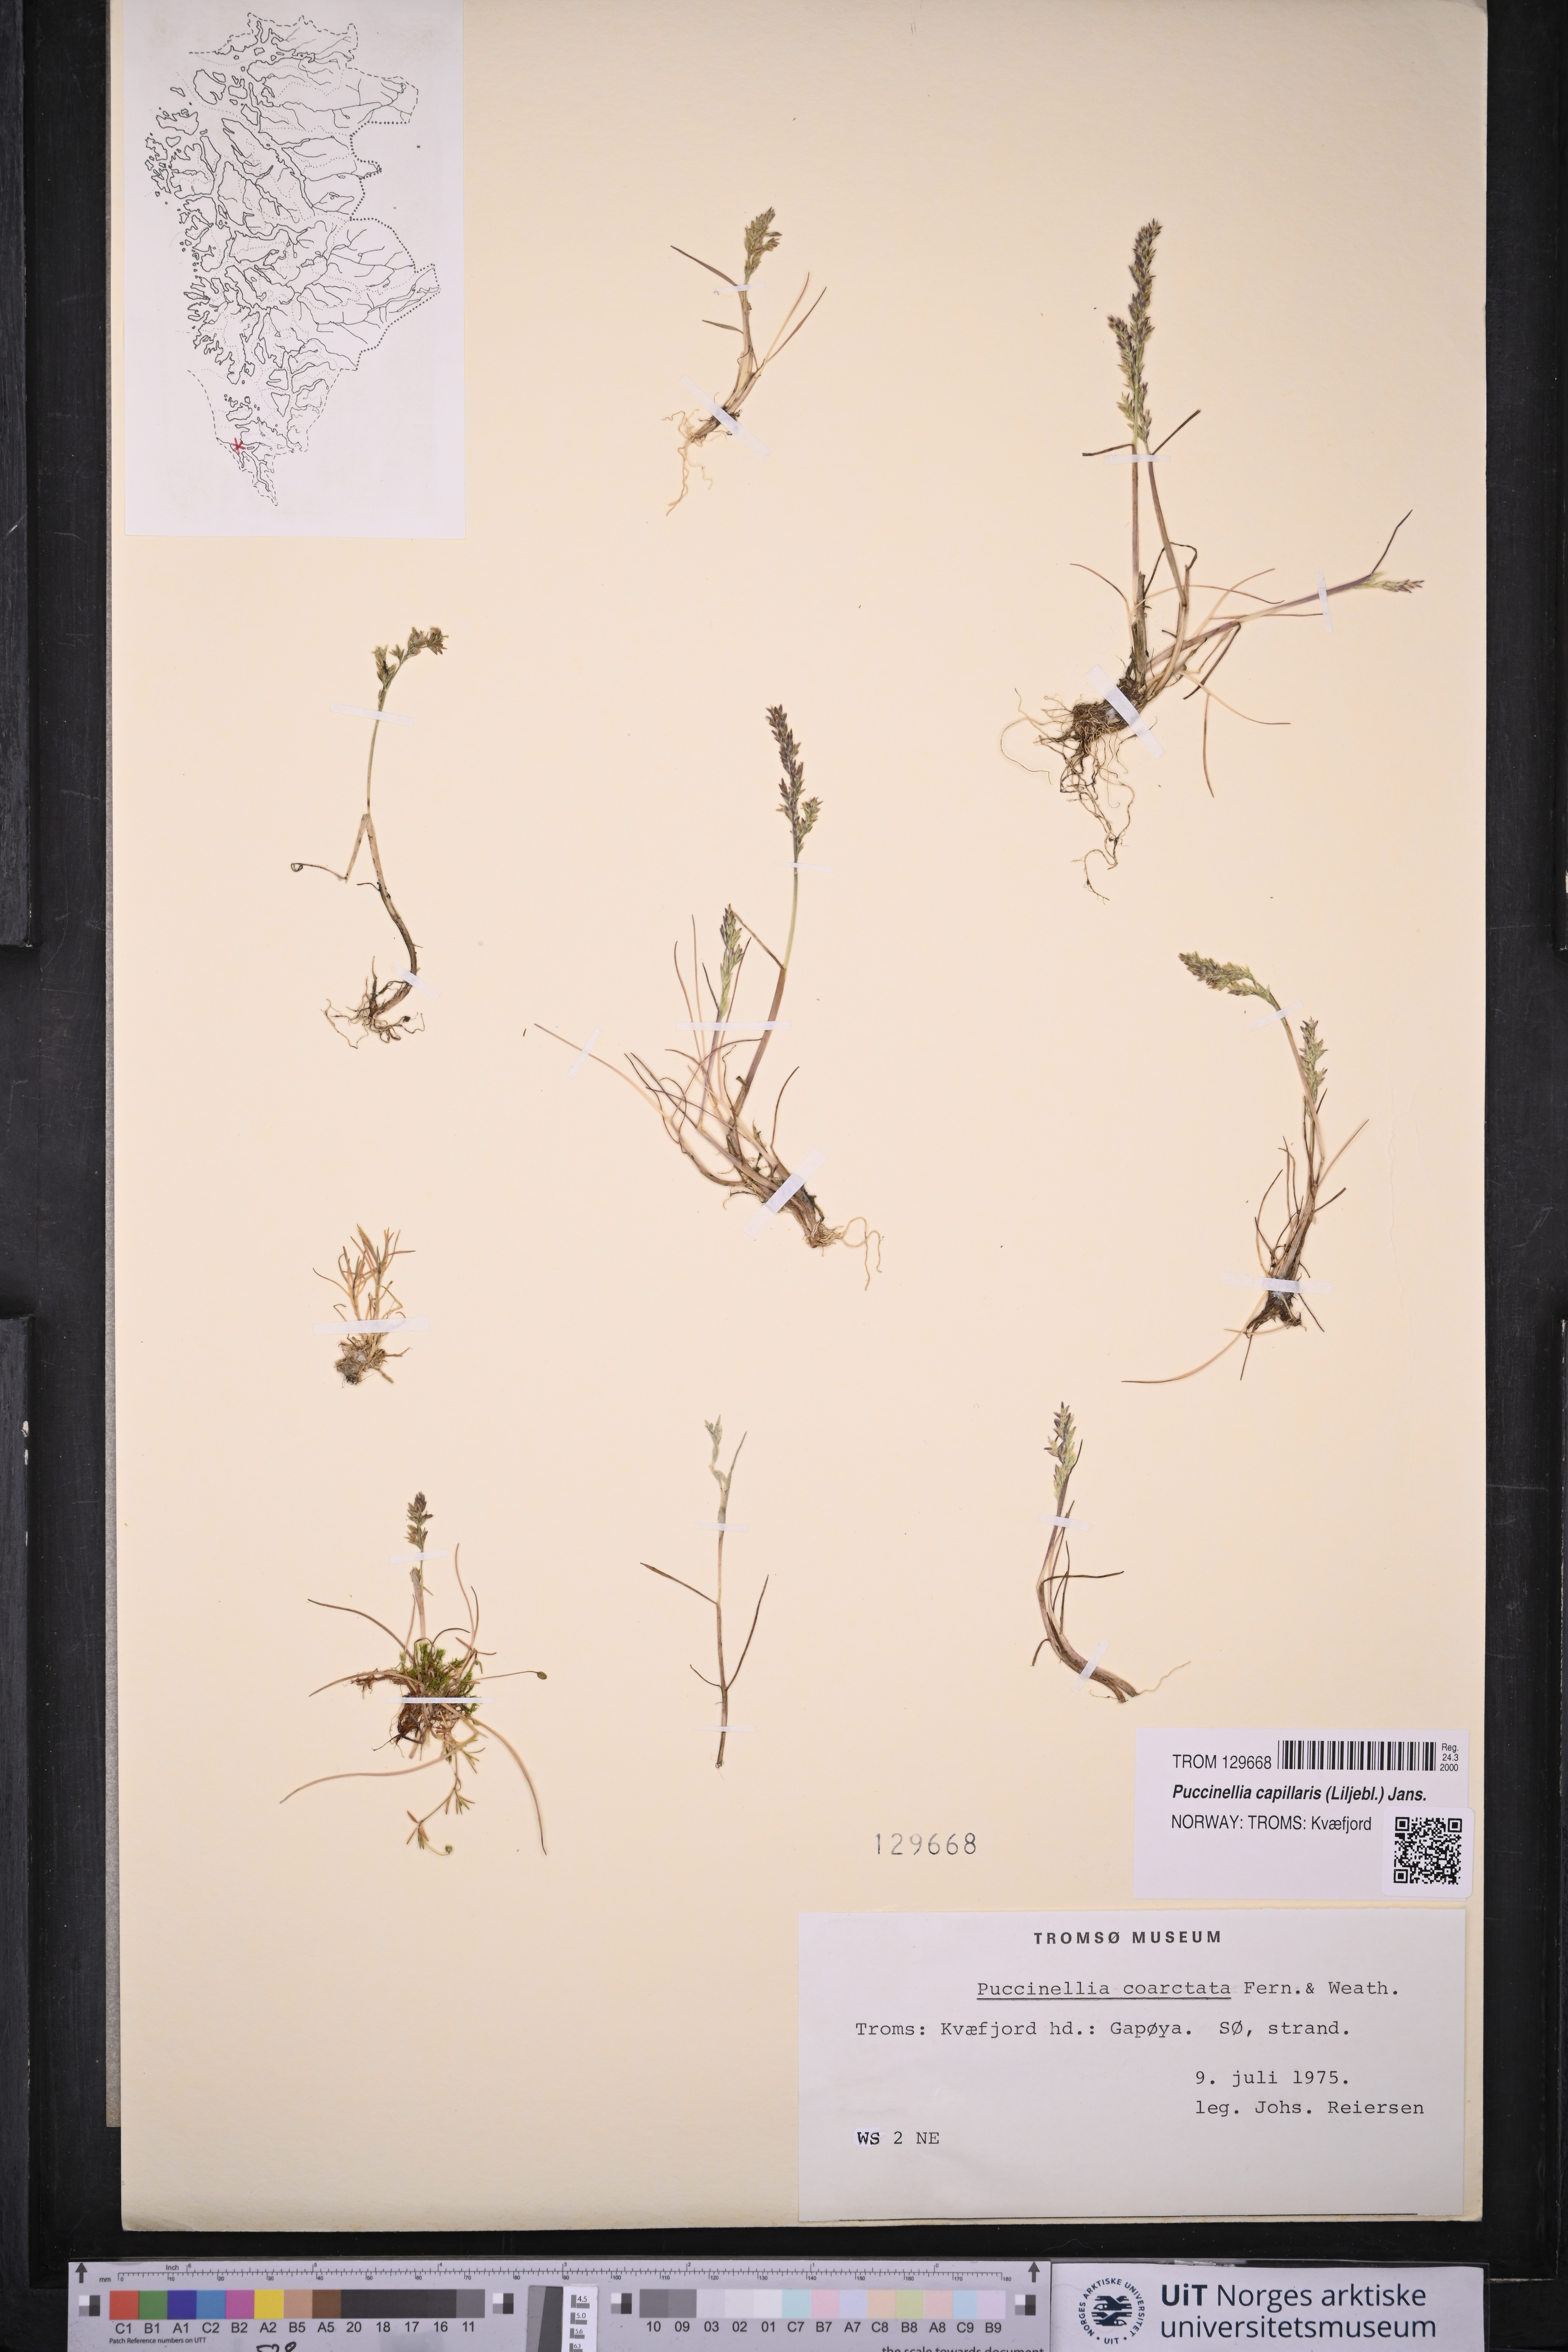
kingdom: Plantae
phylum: Tracheophyta
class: Liliopsida
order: Poales
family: Poaceae
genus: Puccinellia
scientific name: Puccinellia distans
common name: Weeping alkaligrass
